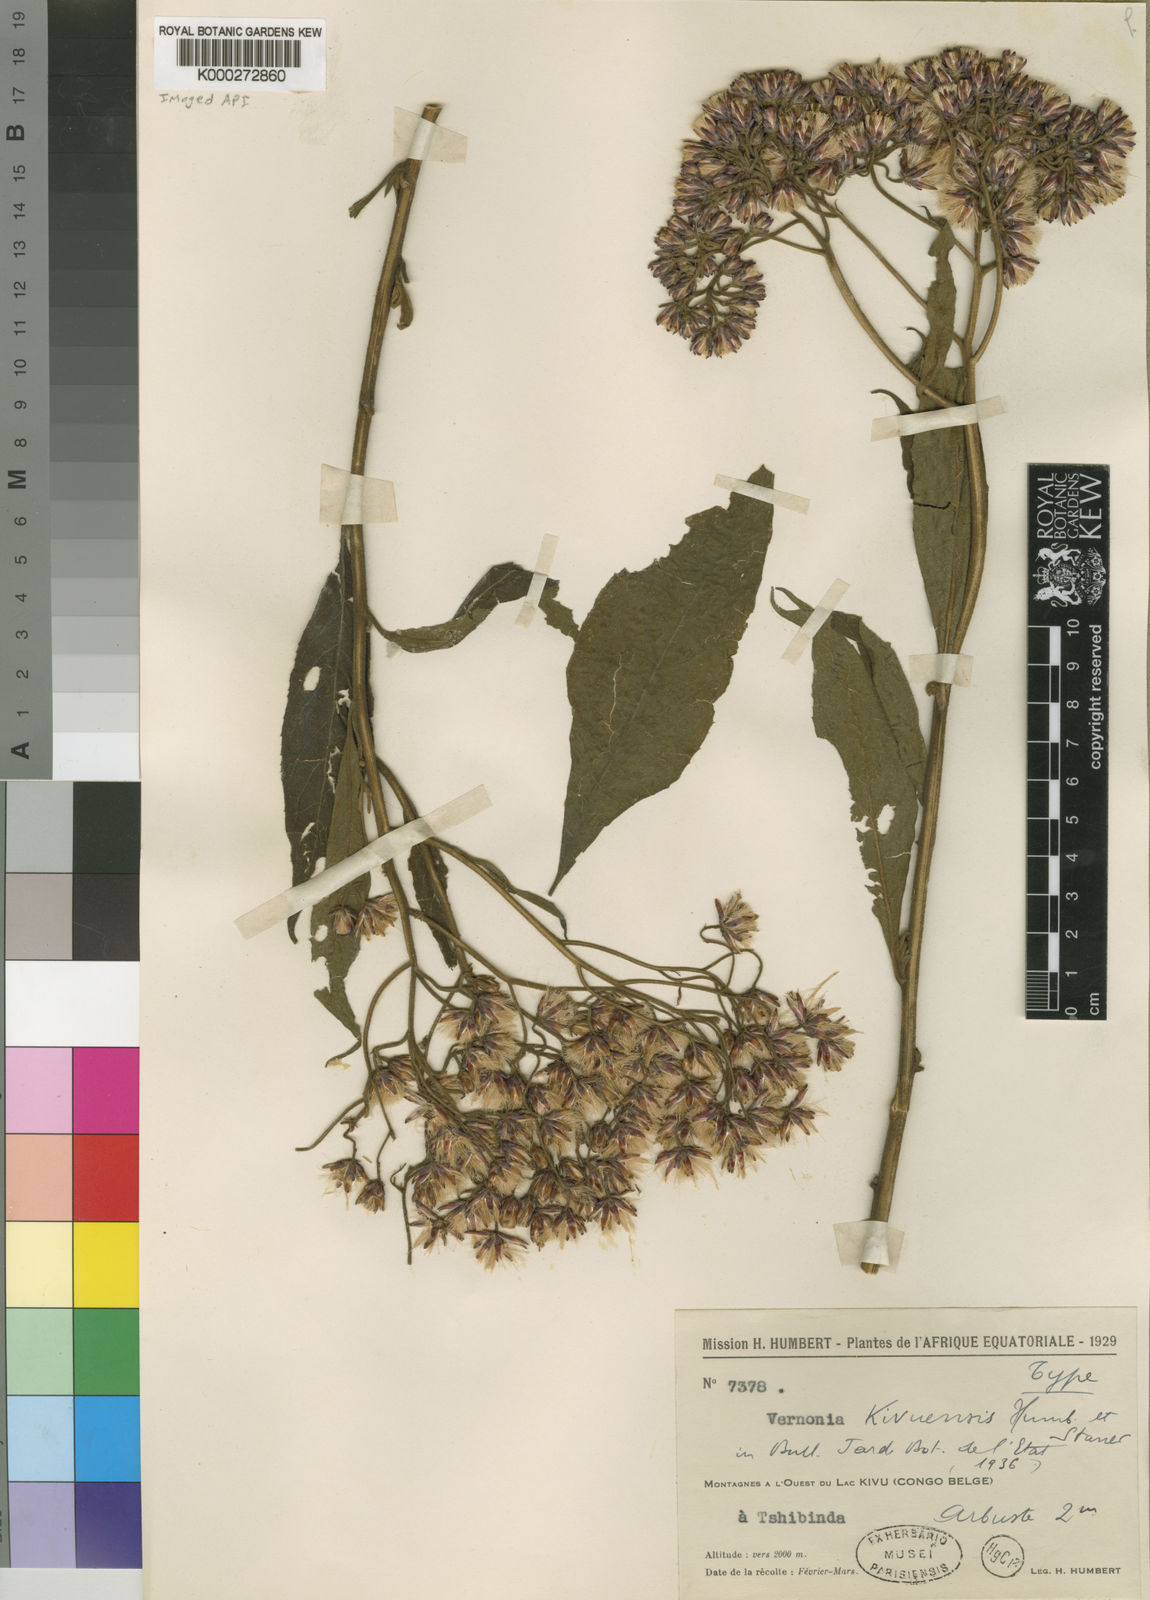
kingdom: Plantae
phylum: Tracheophyta
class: Magnoliopsida
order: Asterales
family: Asteraceae
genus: Ambassa
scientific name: Ambassa hochstetteri
